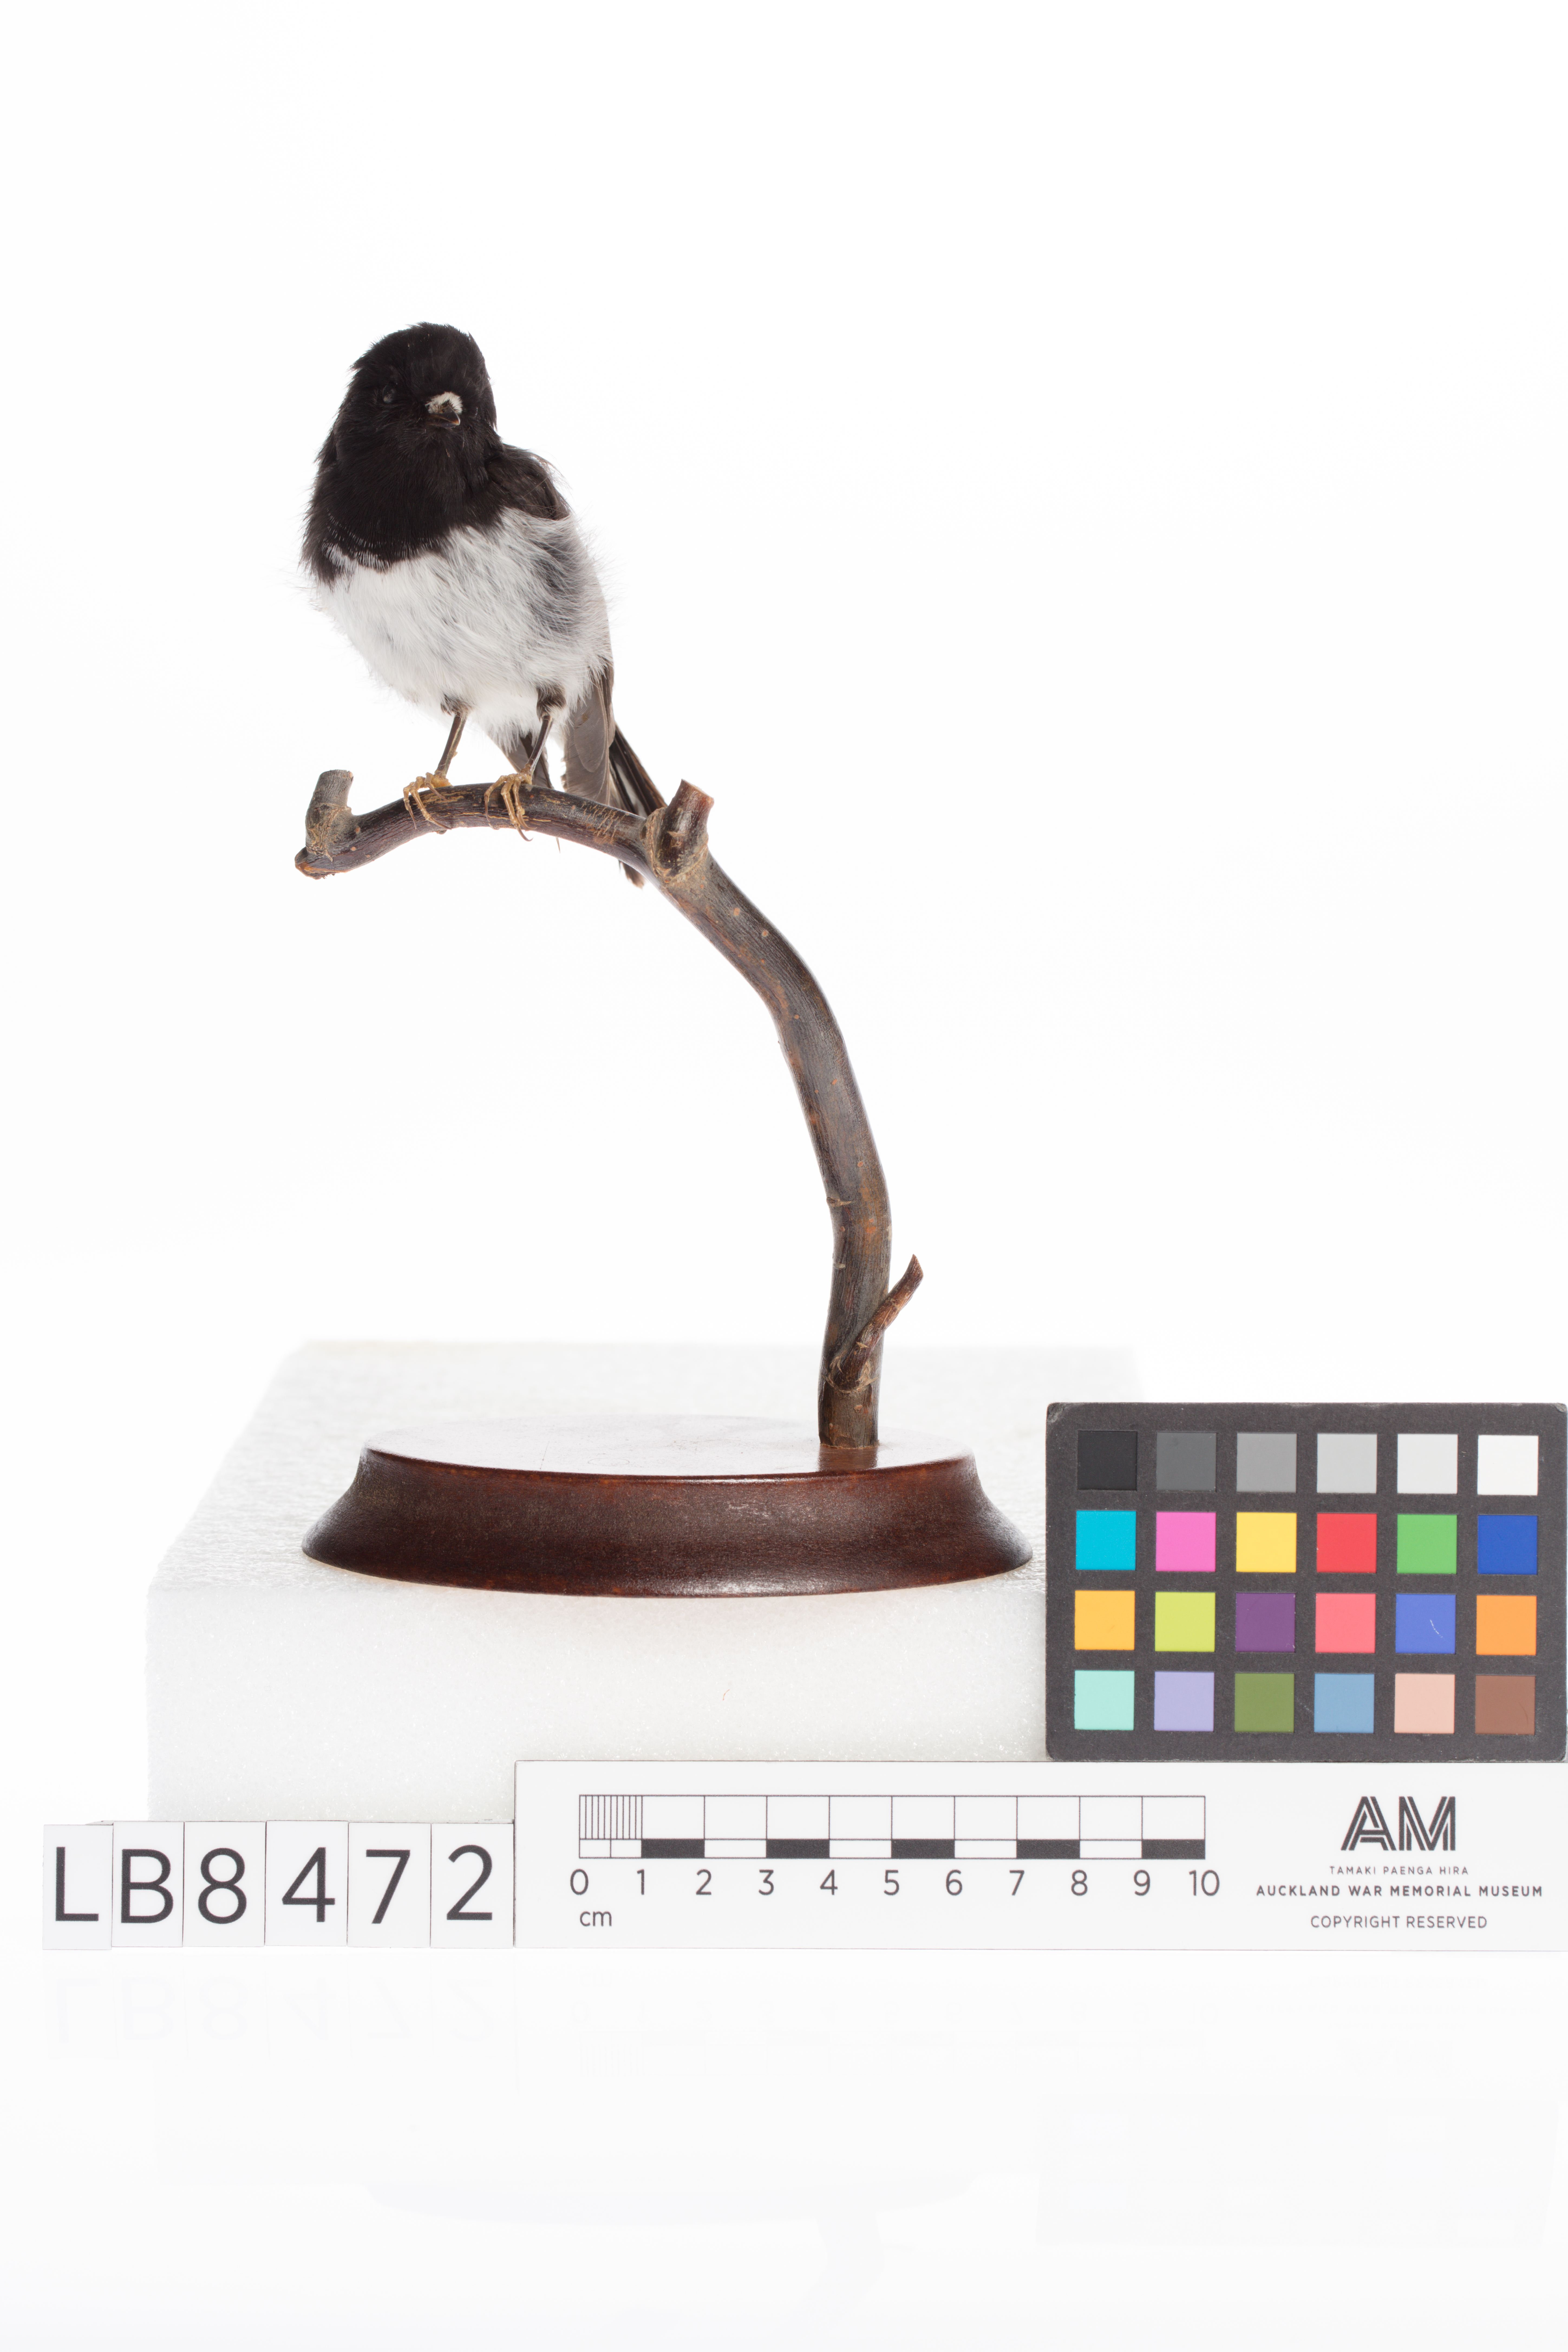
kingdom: Animalia
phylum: Chordata
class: Aves
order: Passeriformes
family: Petroicidae
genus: Petroica
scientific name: Petroica macrocephala
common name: Tomtit
